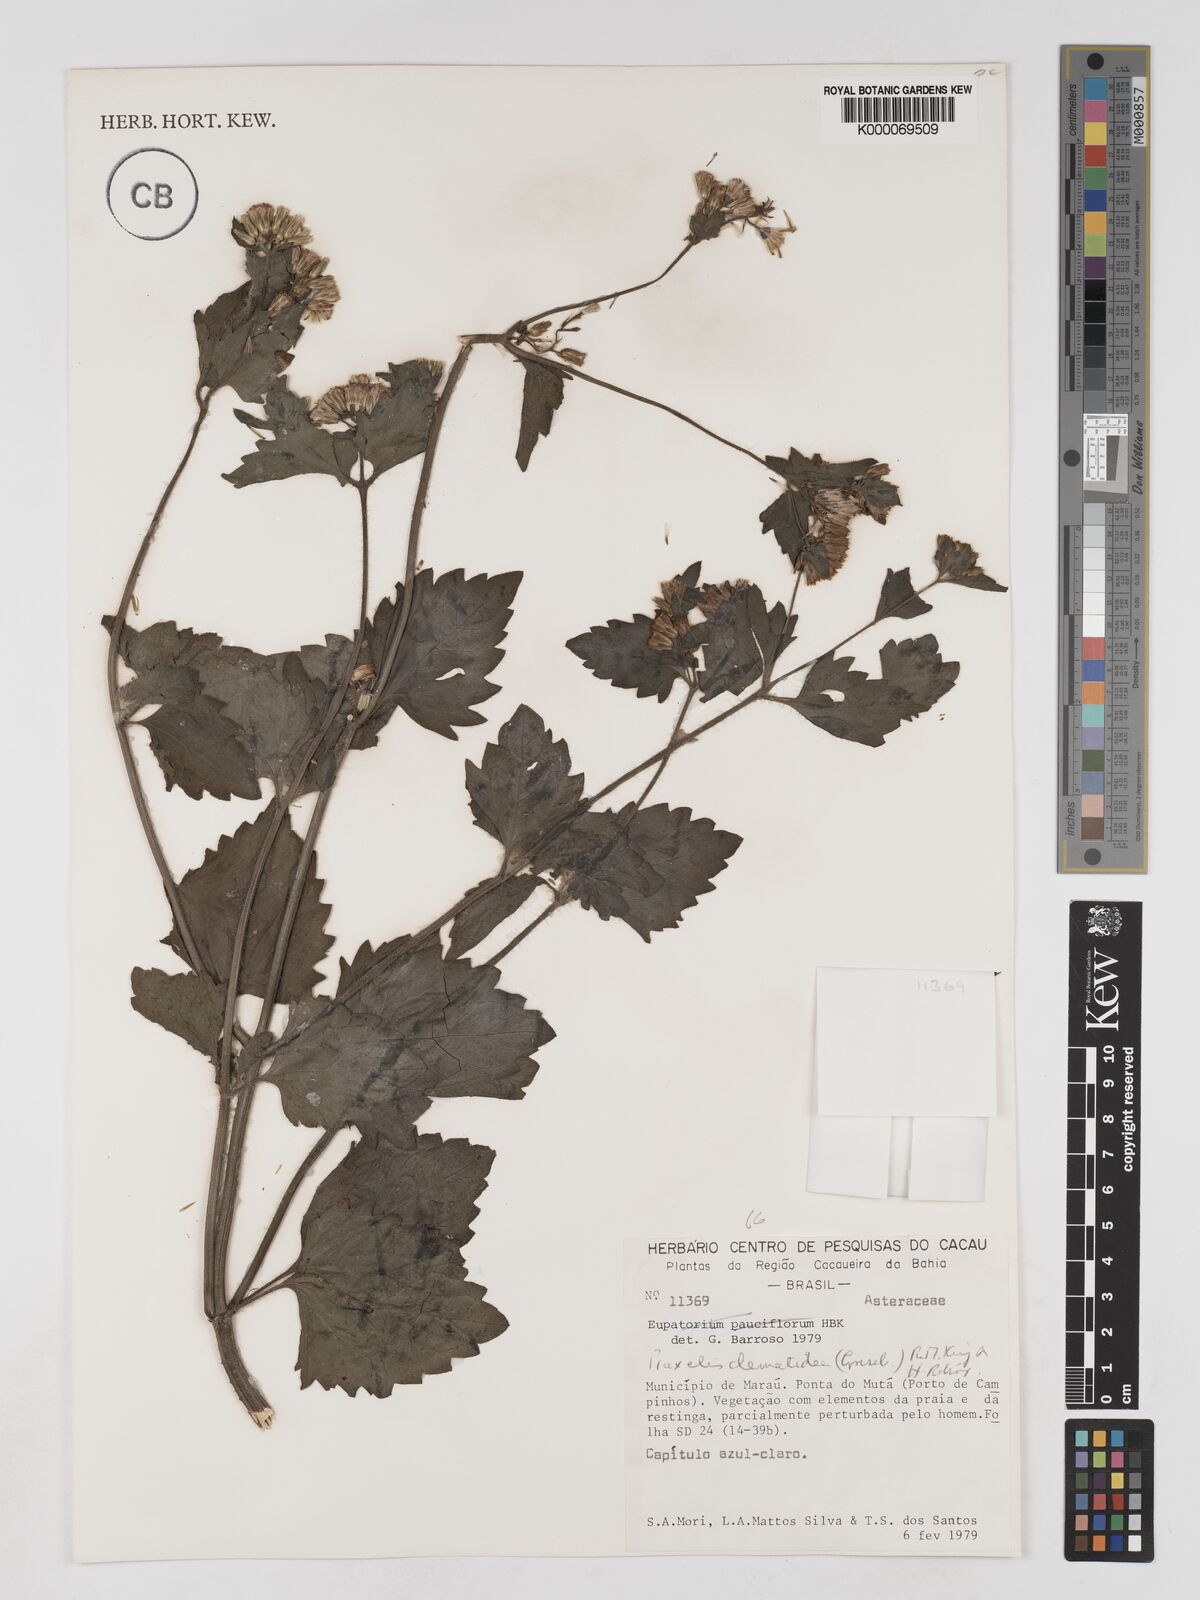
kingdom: Plantae
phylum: Tracheophyta
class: Magnoliopsida
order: Asterales
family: Asteraceae
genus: Praxelis
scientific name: Praxelis clematidea
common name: Praxelis
